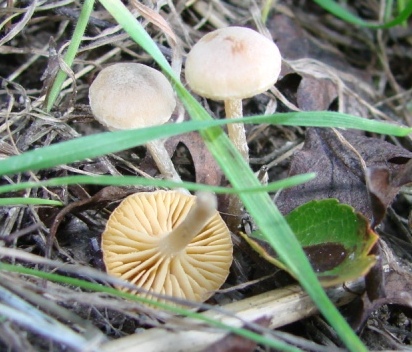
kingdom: Fungi
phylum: Basidiomycota
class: Agaricomycetes
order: Agaricales
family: Tubariaceae
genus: Tubaria
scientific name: Tubaria dispersa
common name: tjørne-fnughat
